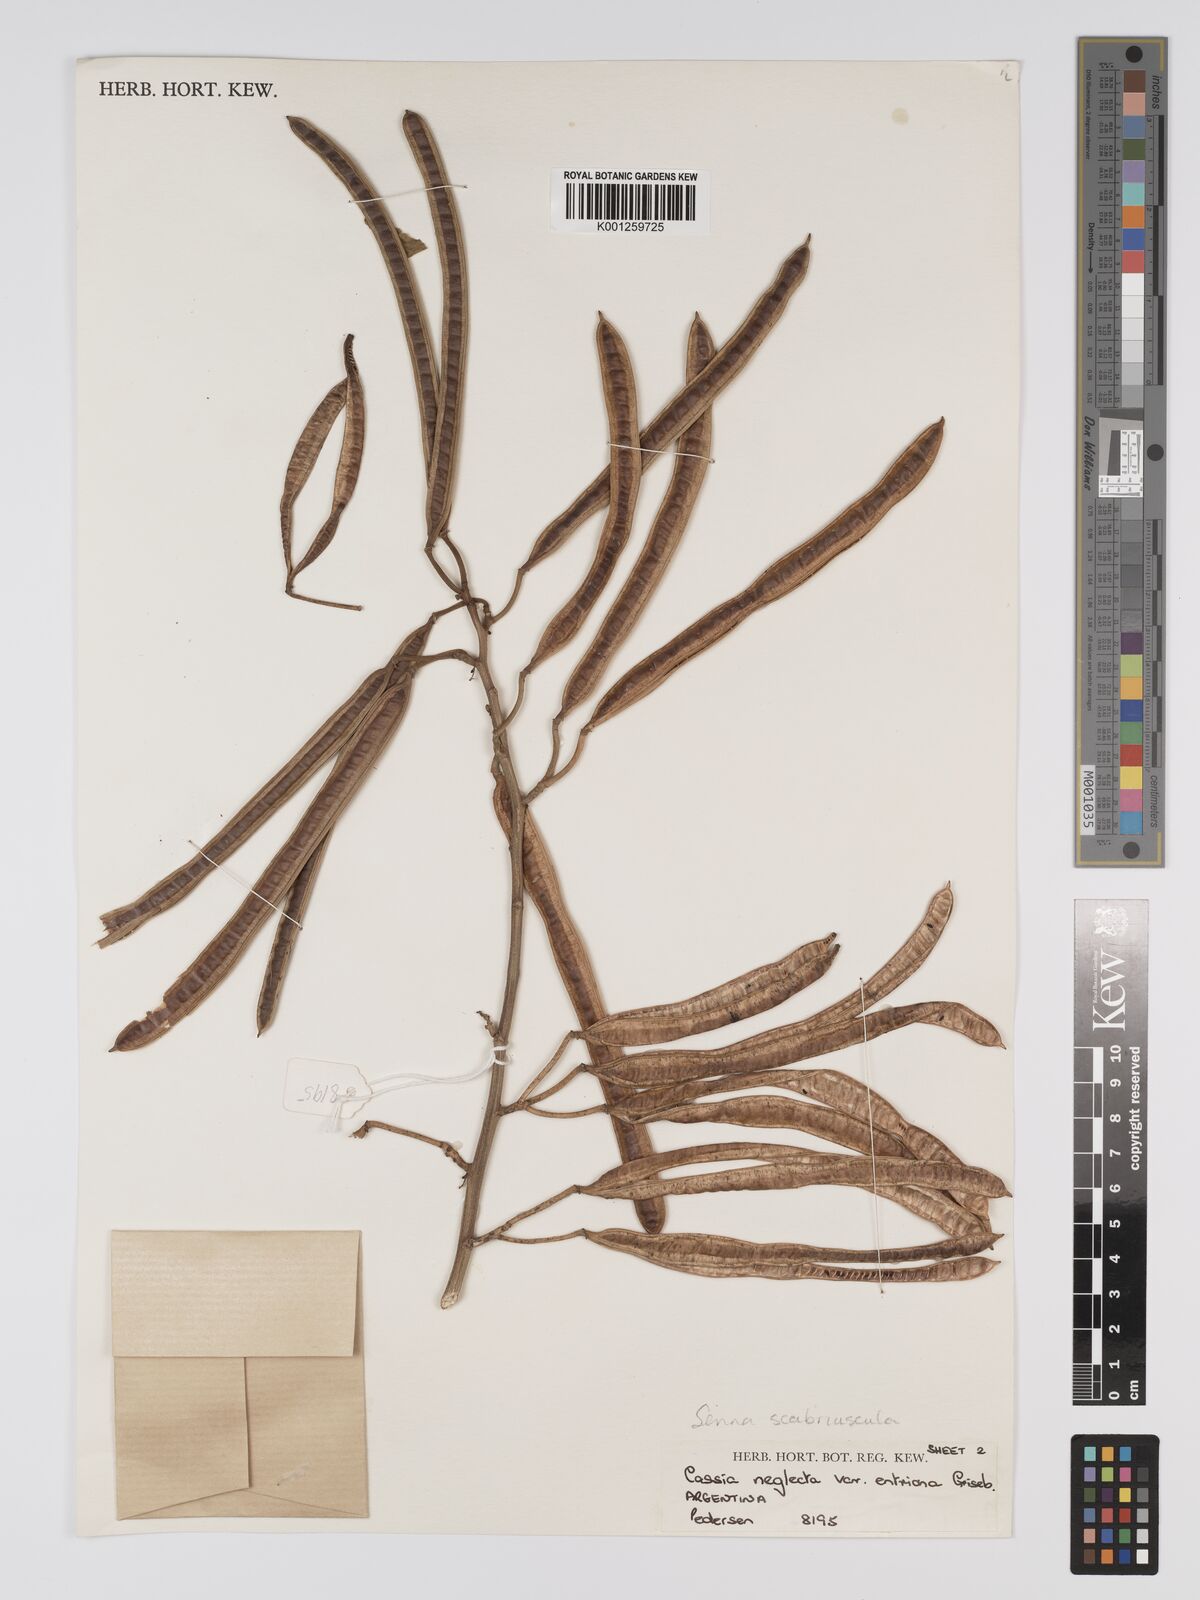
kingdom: Plantae
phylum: Tracheophyta
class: Magnoliopsida
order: Fabales
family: Fabaceae
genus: Senna
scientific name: Senna
